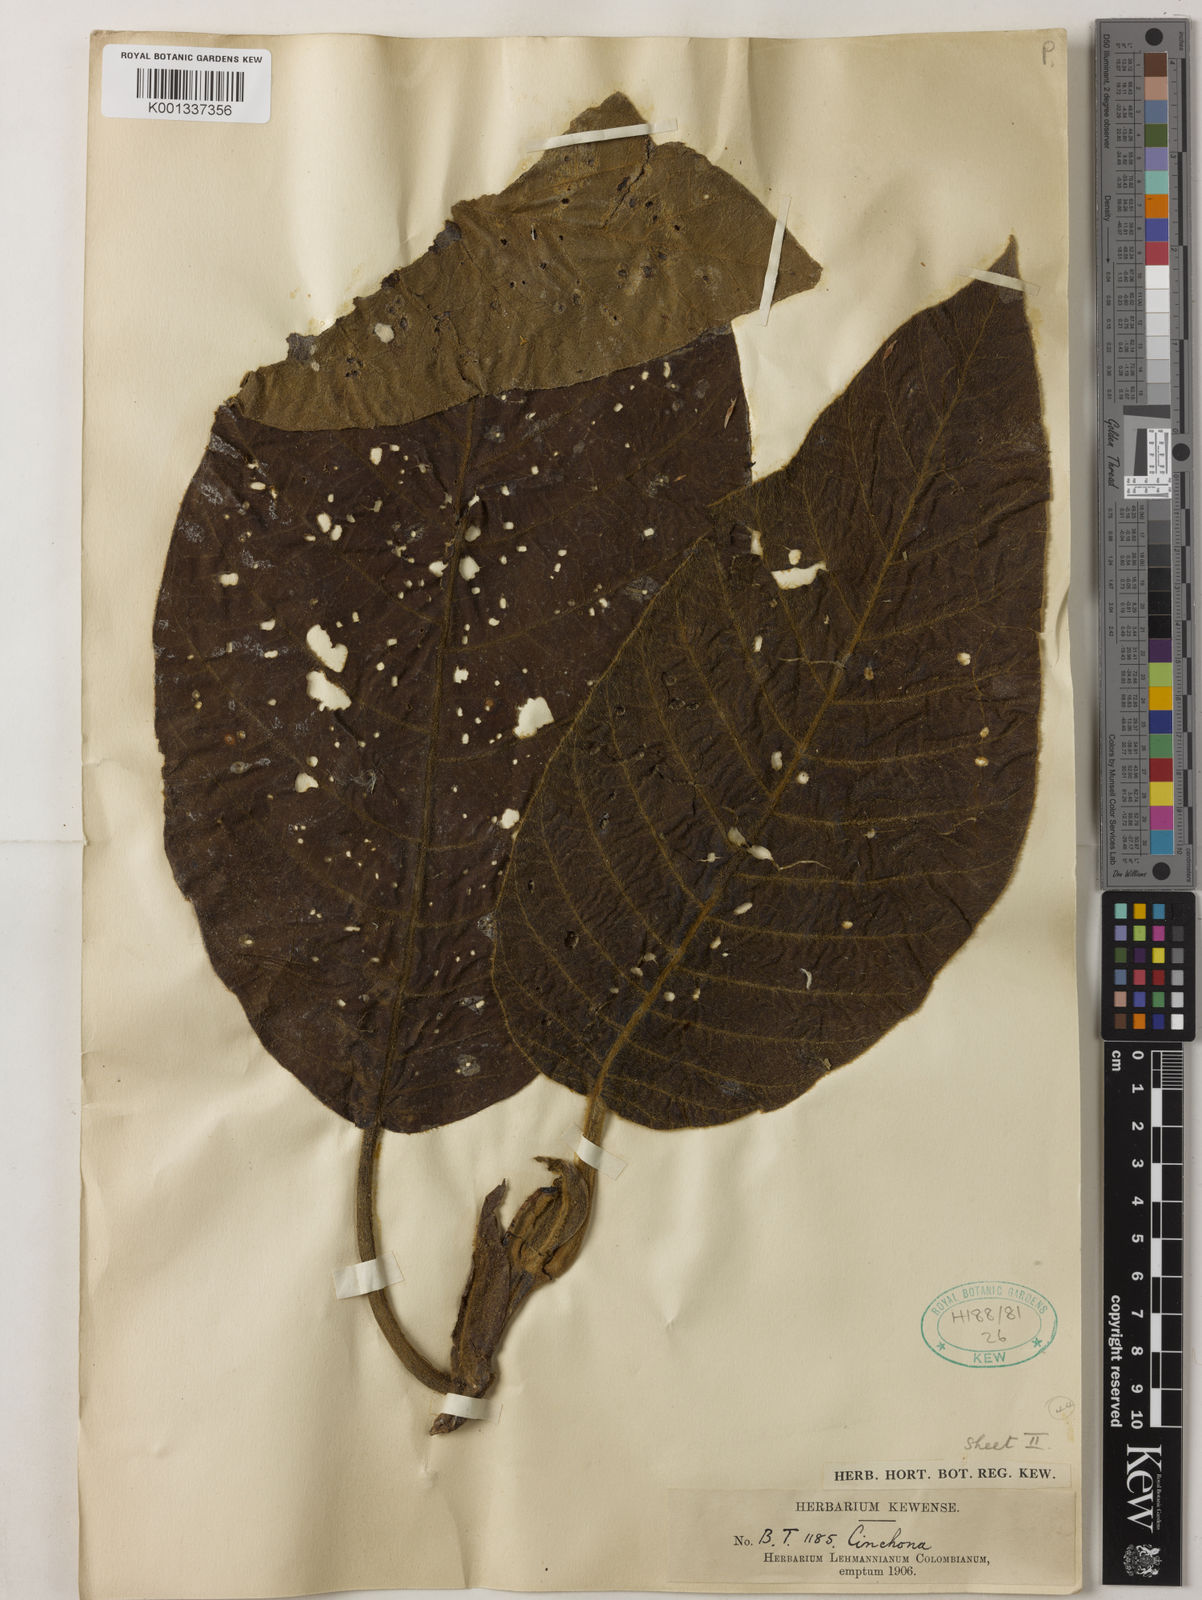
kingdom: Plantae
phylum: Tracheophyta
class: Magnoliopsida
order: Gentianales
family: Rubiaceae
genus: Cinchona
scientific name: Cinchona
